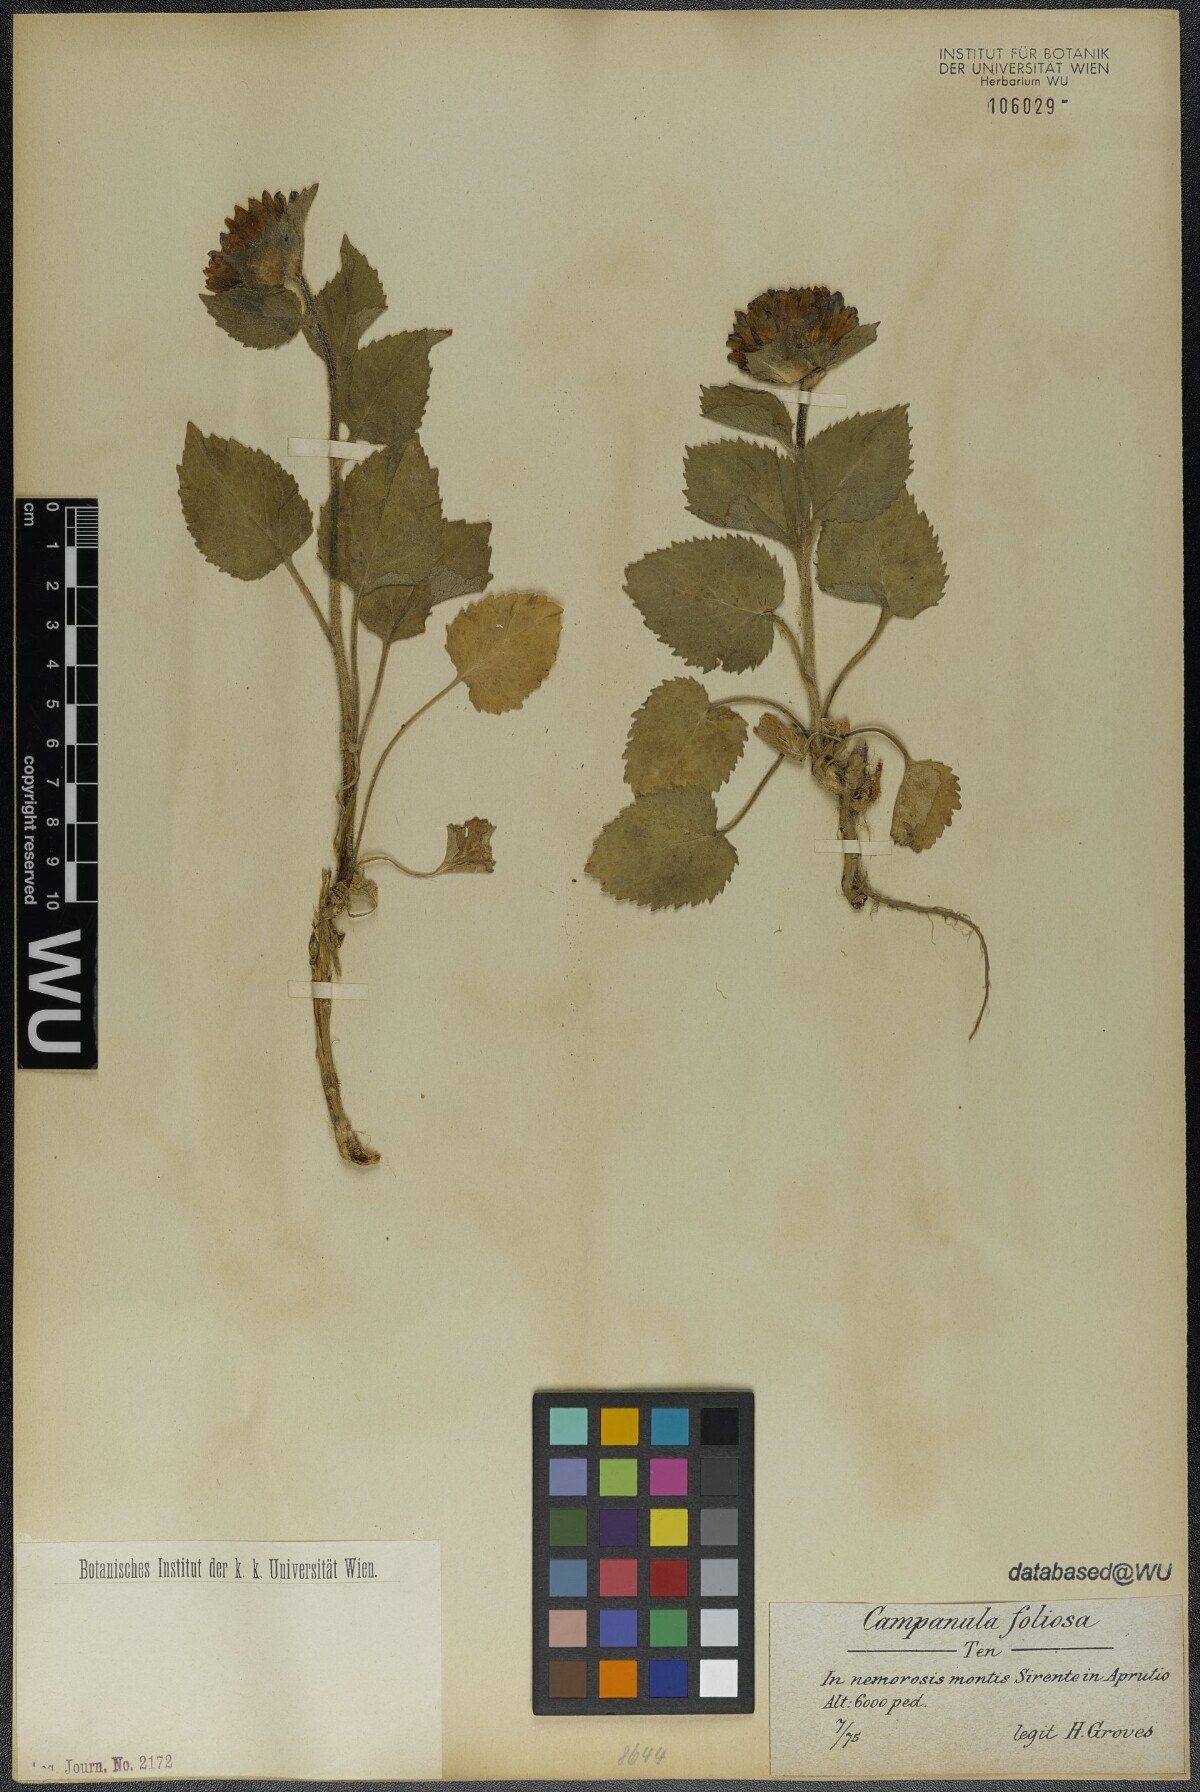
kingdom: Plantae
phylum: Tracheophyta
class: Magnoliopsida
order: Asterales
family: Campanulaceae
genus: Campanula
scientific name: Campanula foliosa
